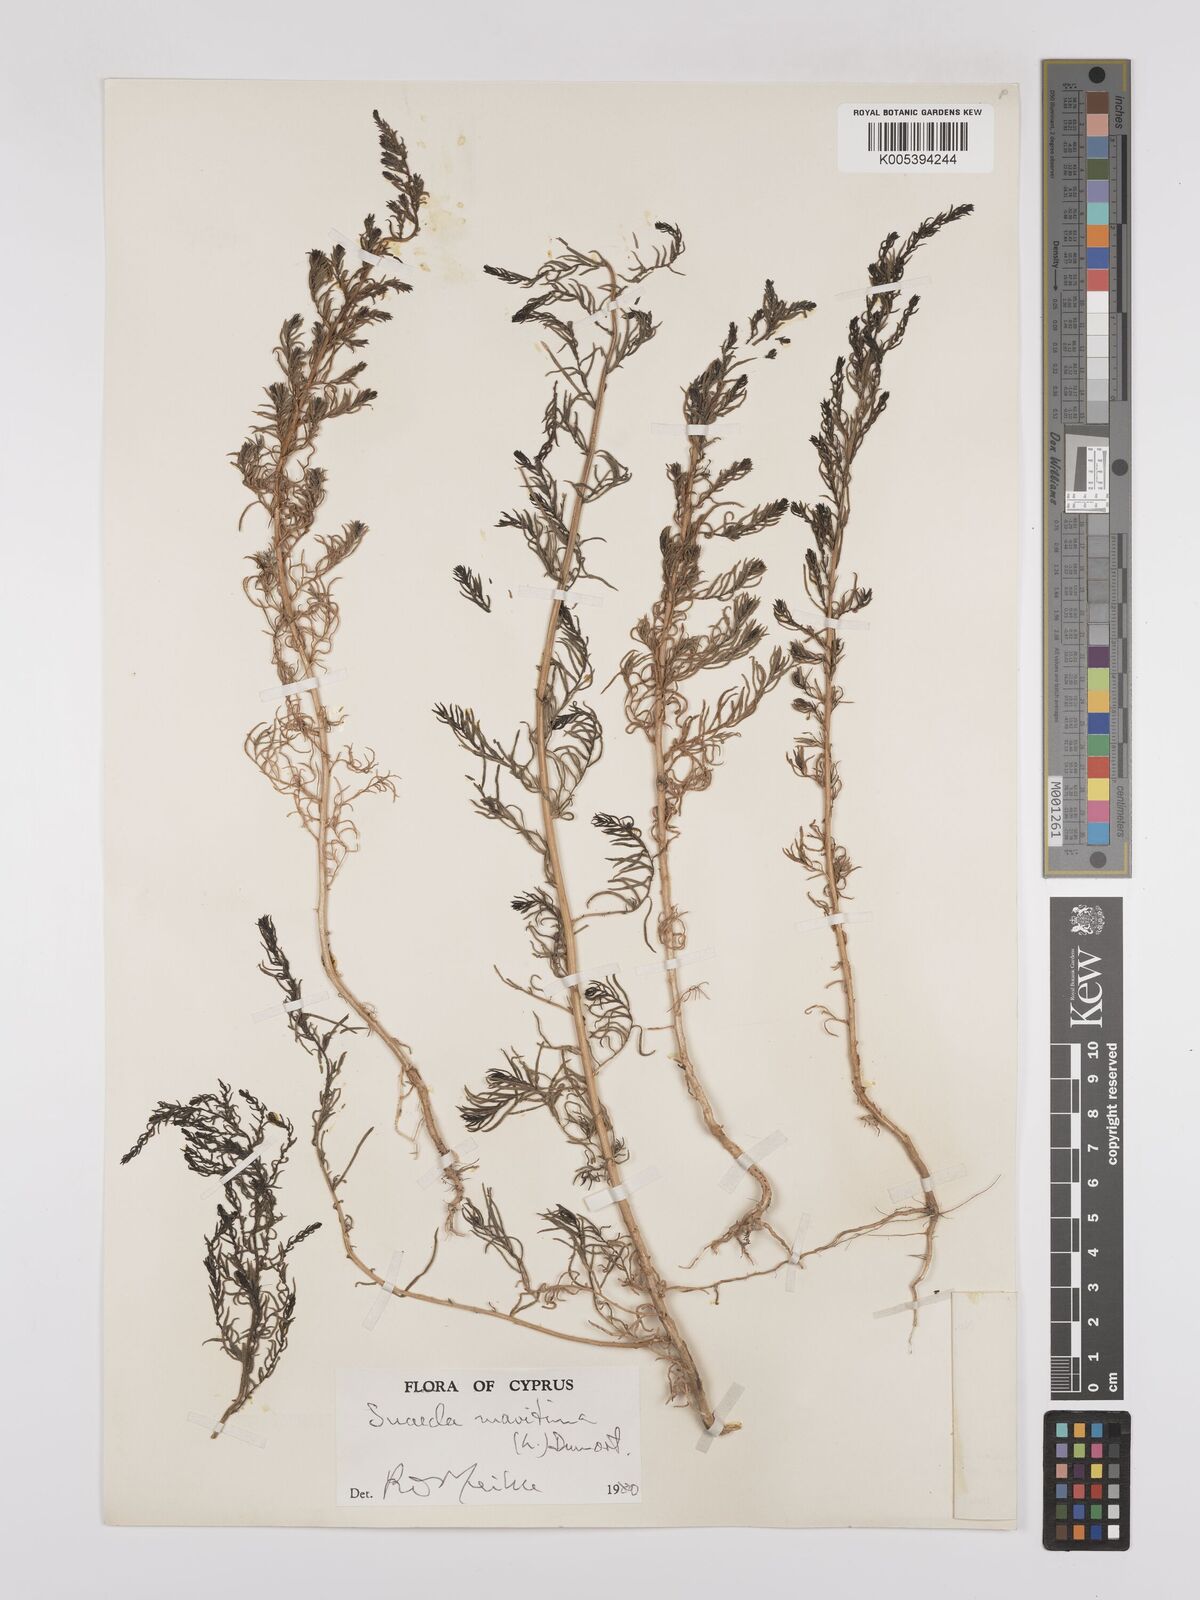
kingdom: Plantae
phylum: Tracheophyta
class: Magnoliopsida
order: Caryophyllales
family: Amaranthaceae
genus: Suaeda
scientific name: Suaeda
